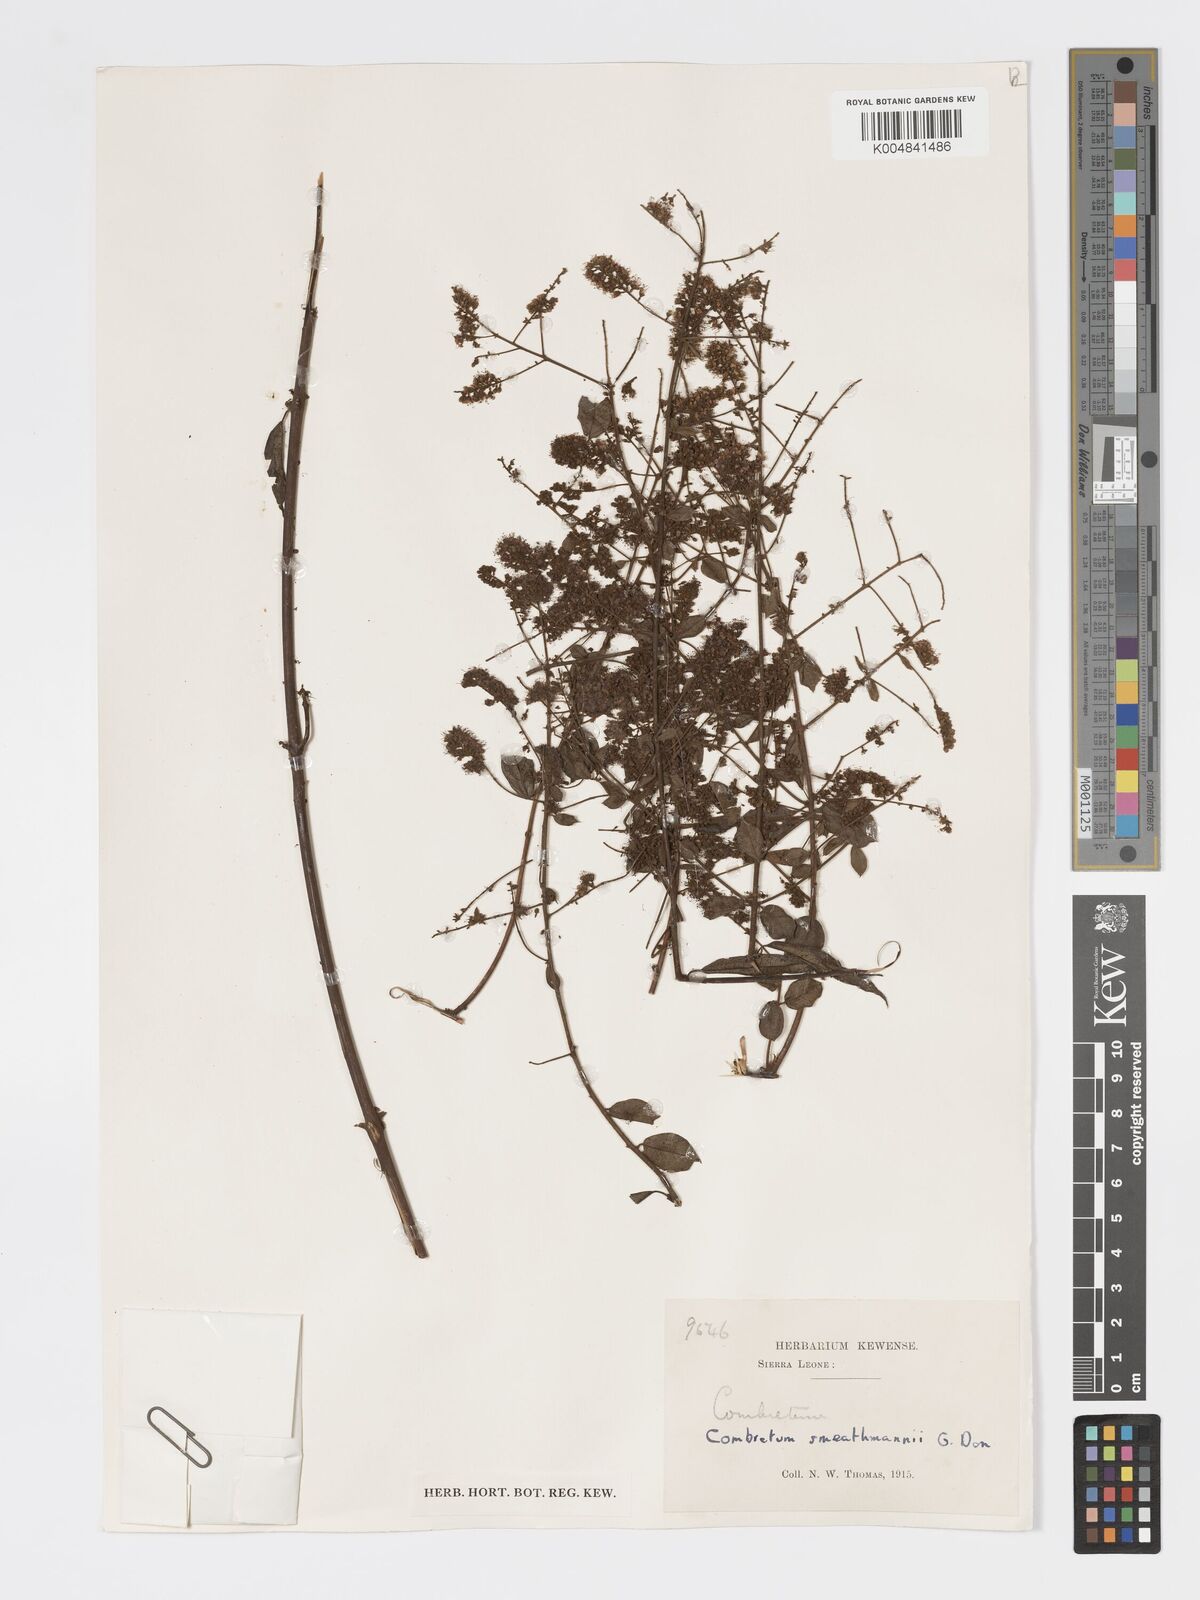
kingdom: Plantae
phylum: Tracheophyta
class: Magnoliopsida
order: Myrtales
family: Combretaceae
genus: Combretum
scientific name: Combretum mucronatum
